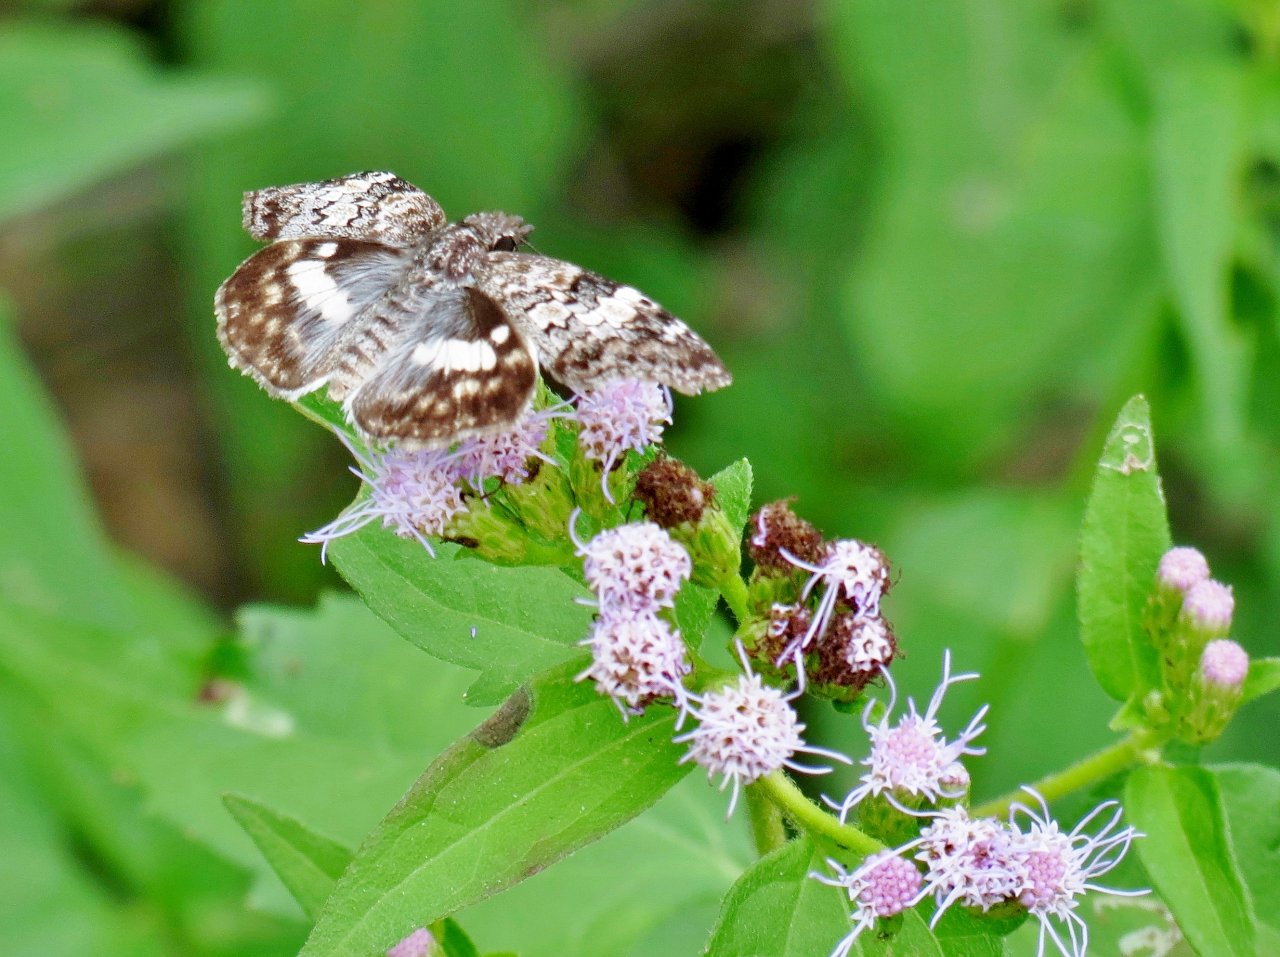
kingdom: Animalia
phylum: Arthropoda
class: Insecta
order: Lepidoptera
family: Hesperiidae
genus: Chiomara
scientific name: Chiomara asychis
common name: White-patched Skipper
